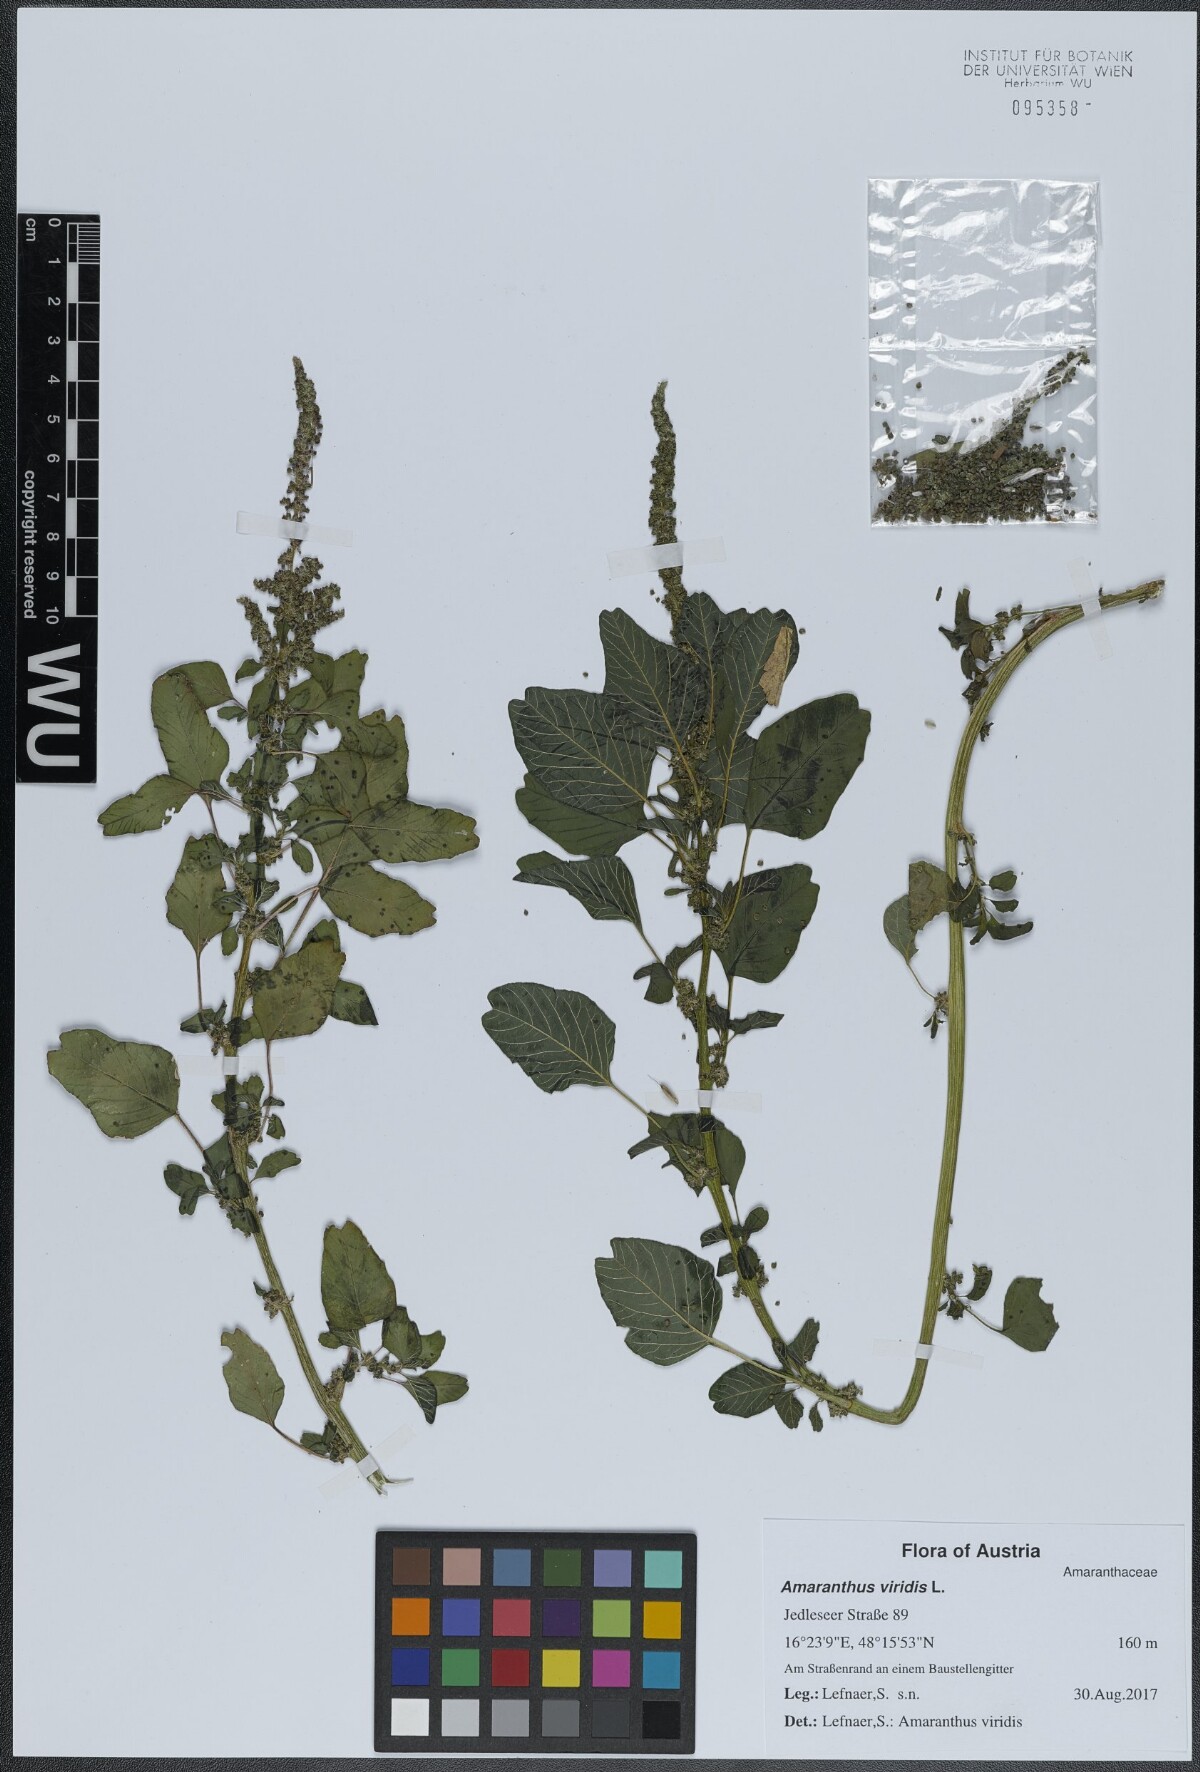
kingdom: Plantae
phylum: Tracheophyta
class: Magnoliopsida
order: Caryophyllales
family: Amaranthaceae
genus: Amaranthus
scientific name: Amaranthus viridis
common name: Slender amaranth
